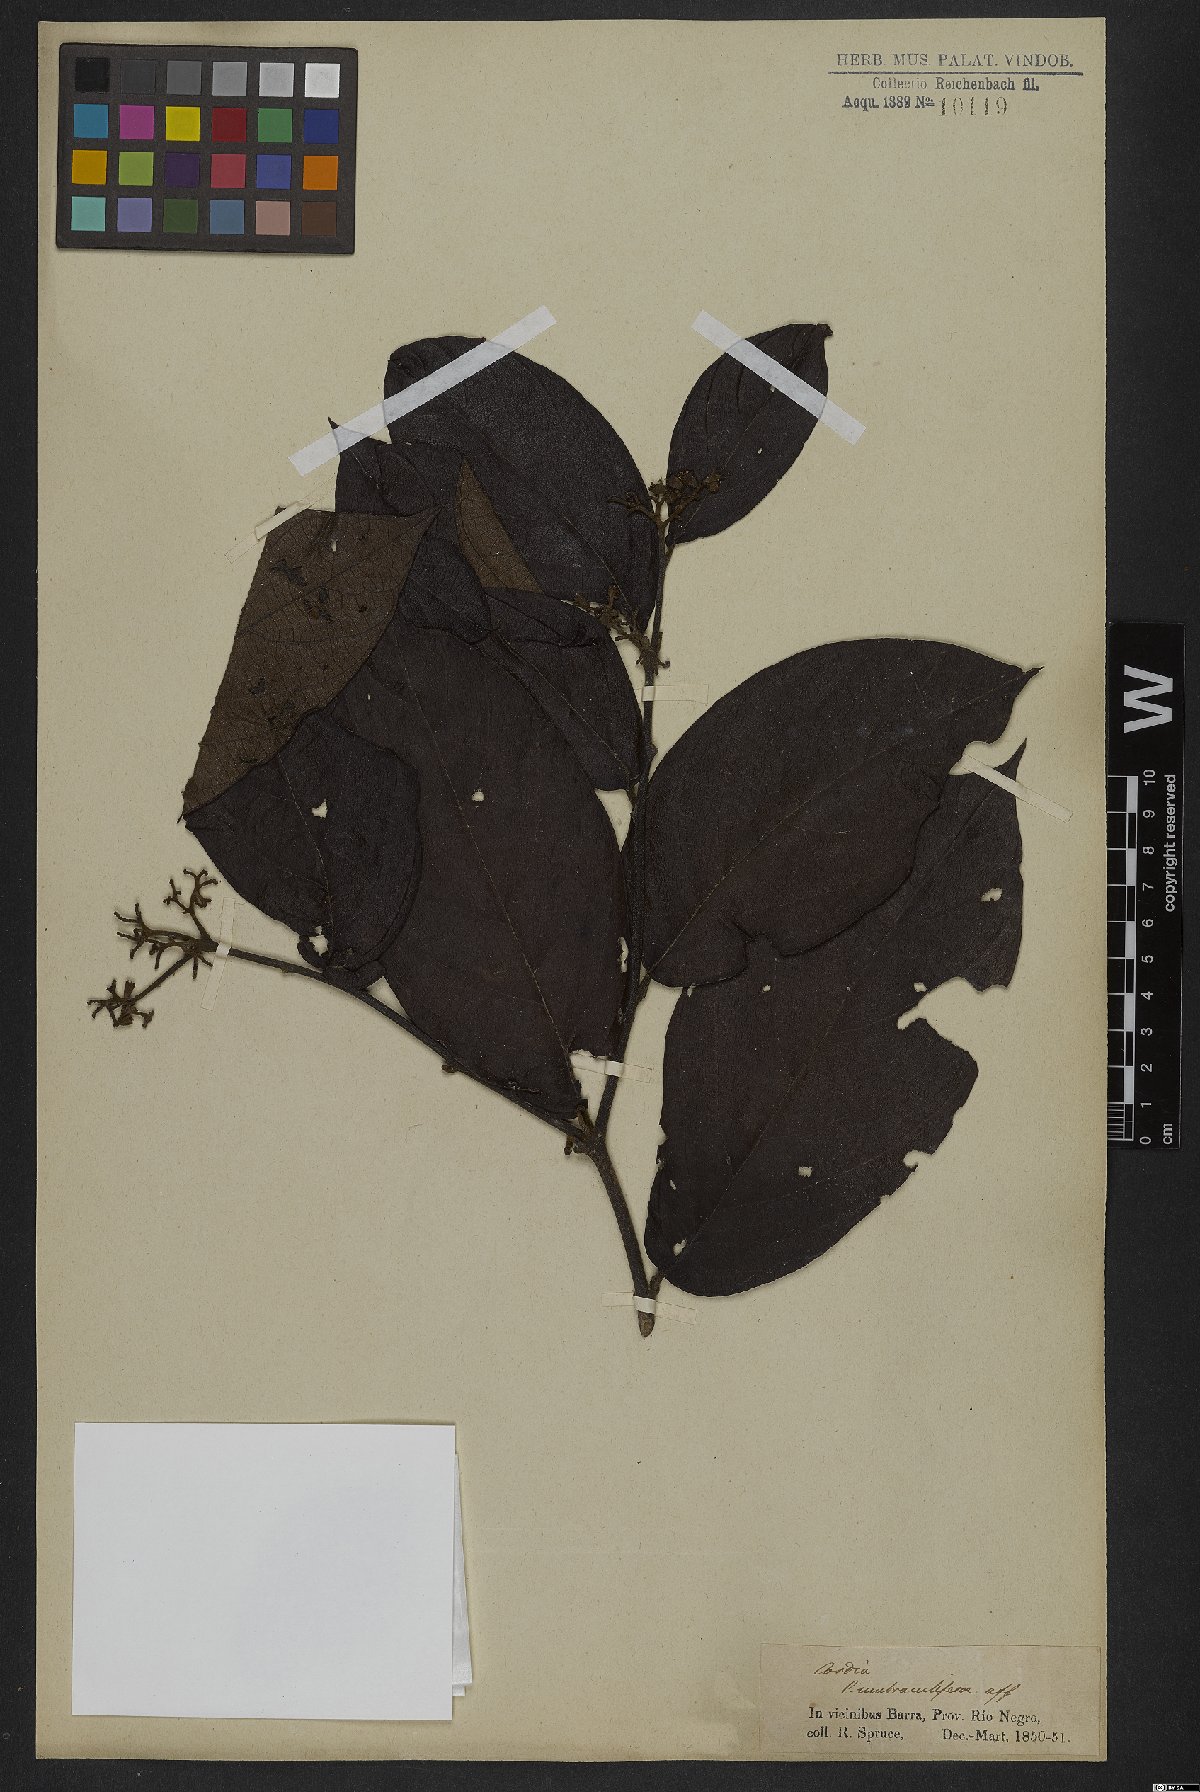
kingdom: Plantae
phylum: Tracheophyta
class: Magnoliopsida
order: Boraginales
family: Cordiaceae
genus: Cordia
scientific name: Cordia tetrandra
